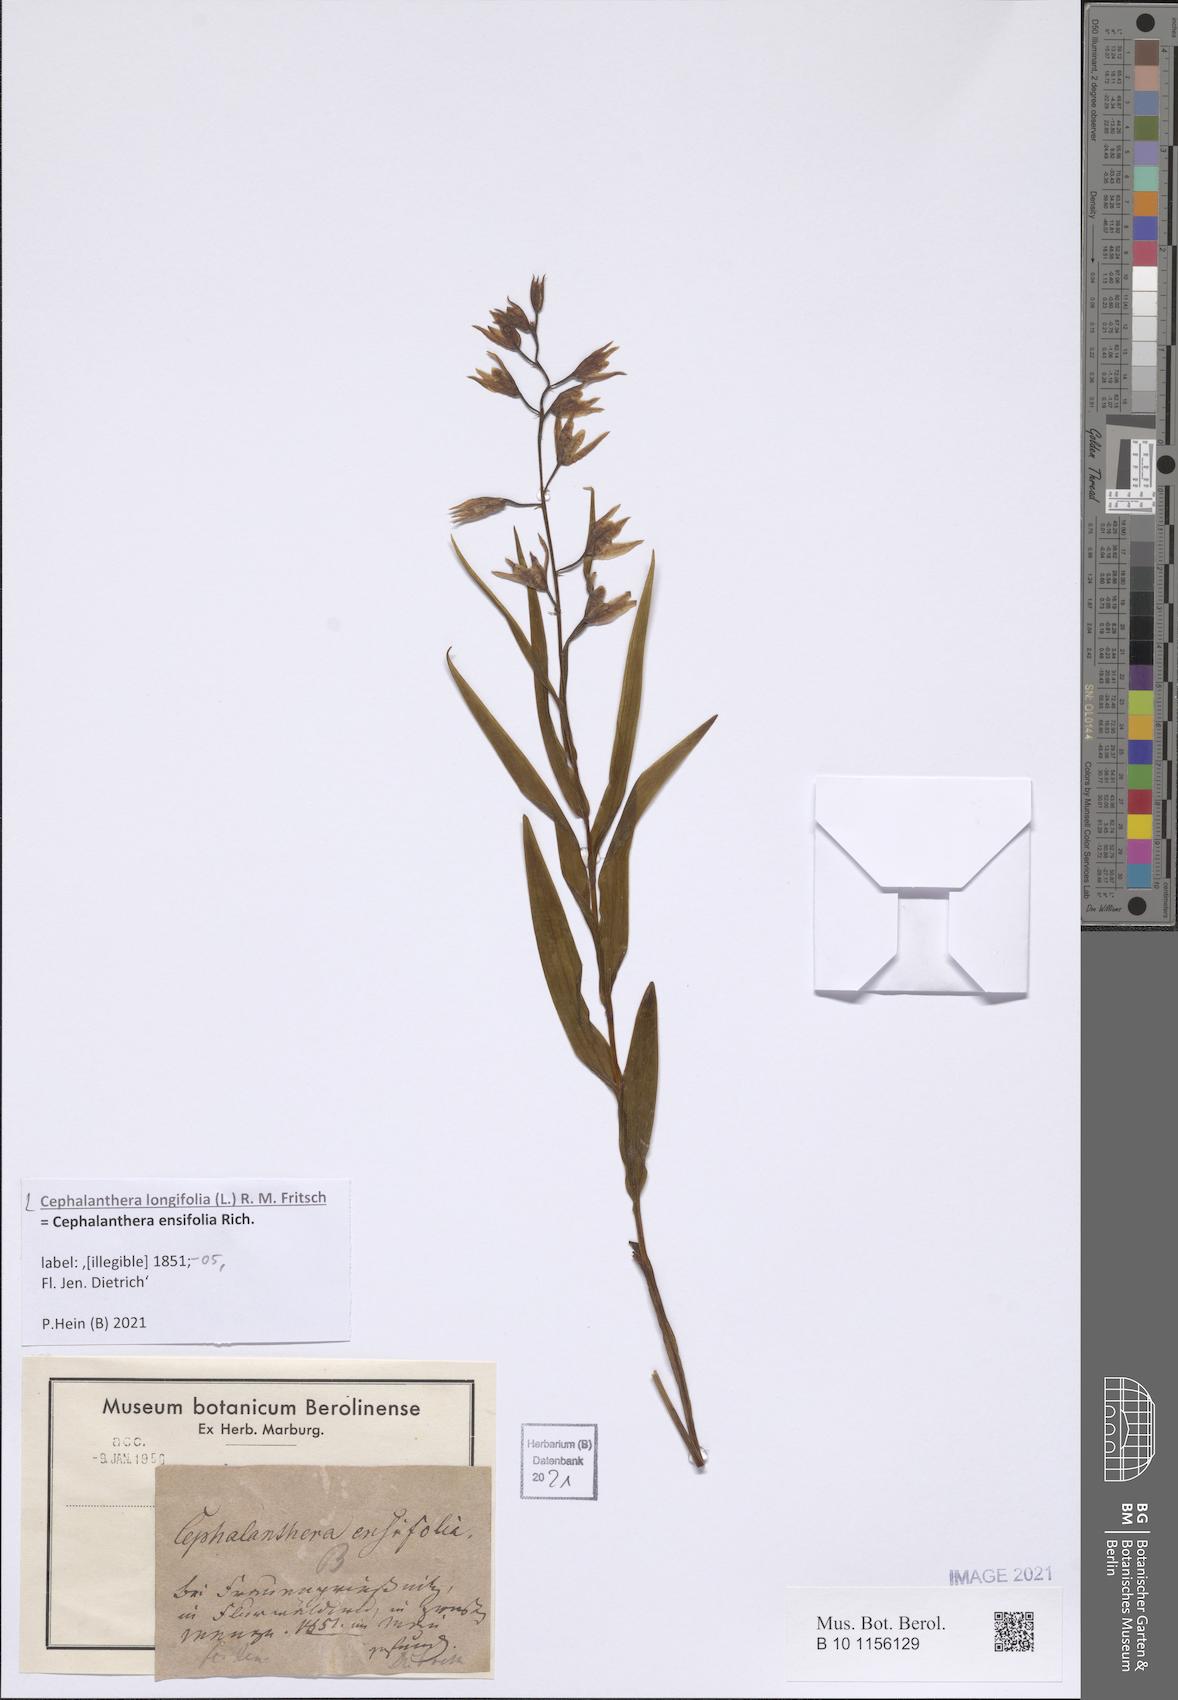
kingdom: Plantae
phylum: Tracheophyta
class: Liliopsida
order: Asparagales
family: Orchidaceae
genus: Cephalanthera
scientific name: Cephalanthera longifolia
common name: Narrow-leaved helleborine
